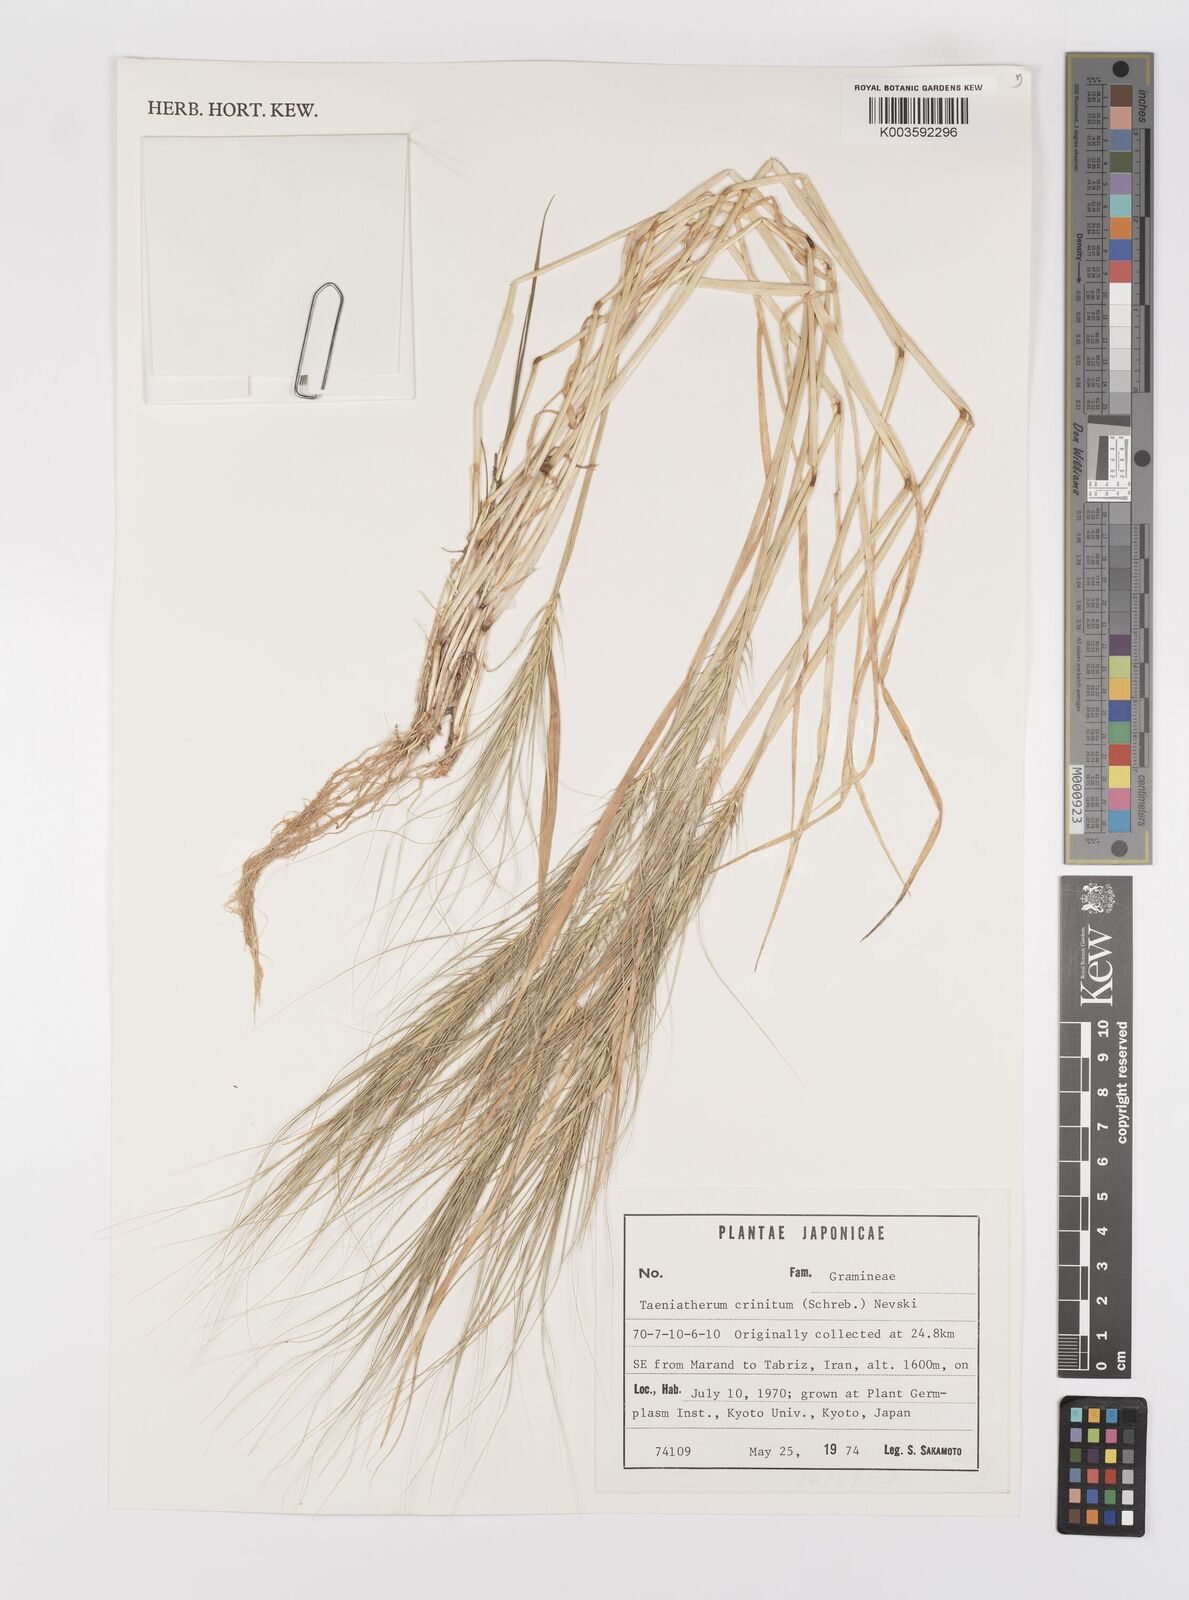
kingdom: Plantae
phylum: Tracheophyta
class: Liliopsida
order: Poales
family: Poaceae
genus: Taeniatherum
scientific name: Taeniatherum caput-medusae
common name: Medusahead
